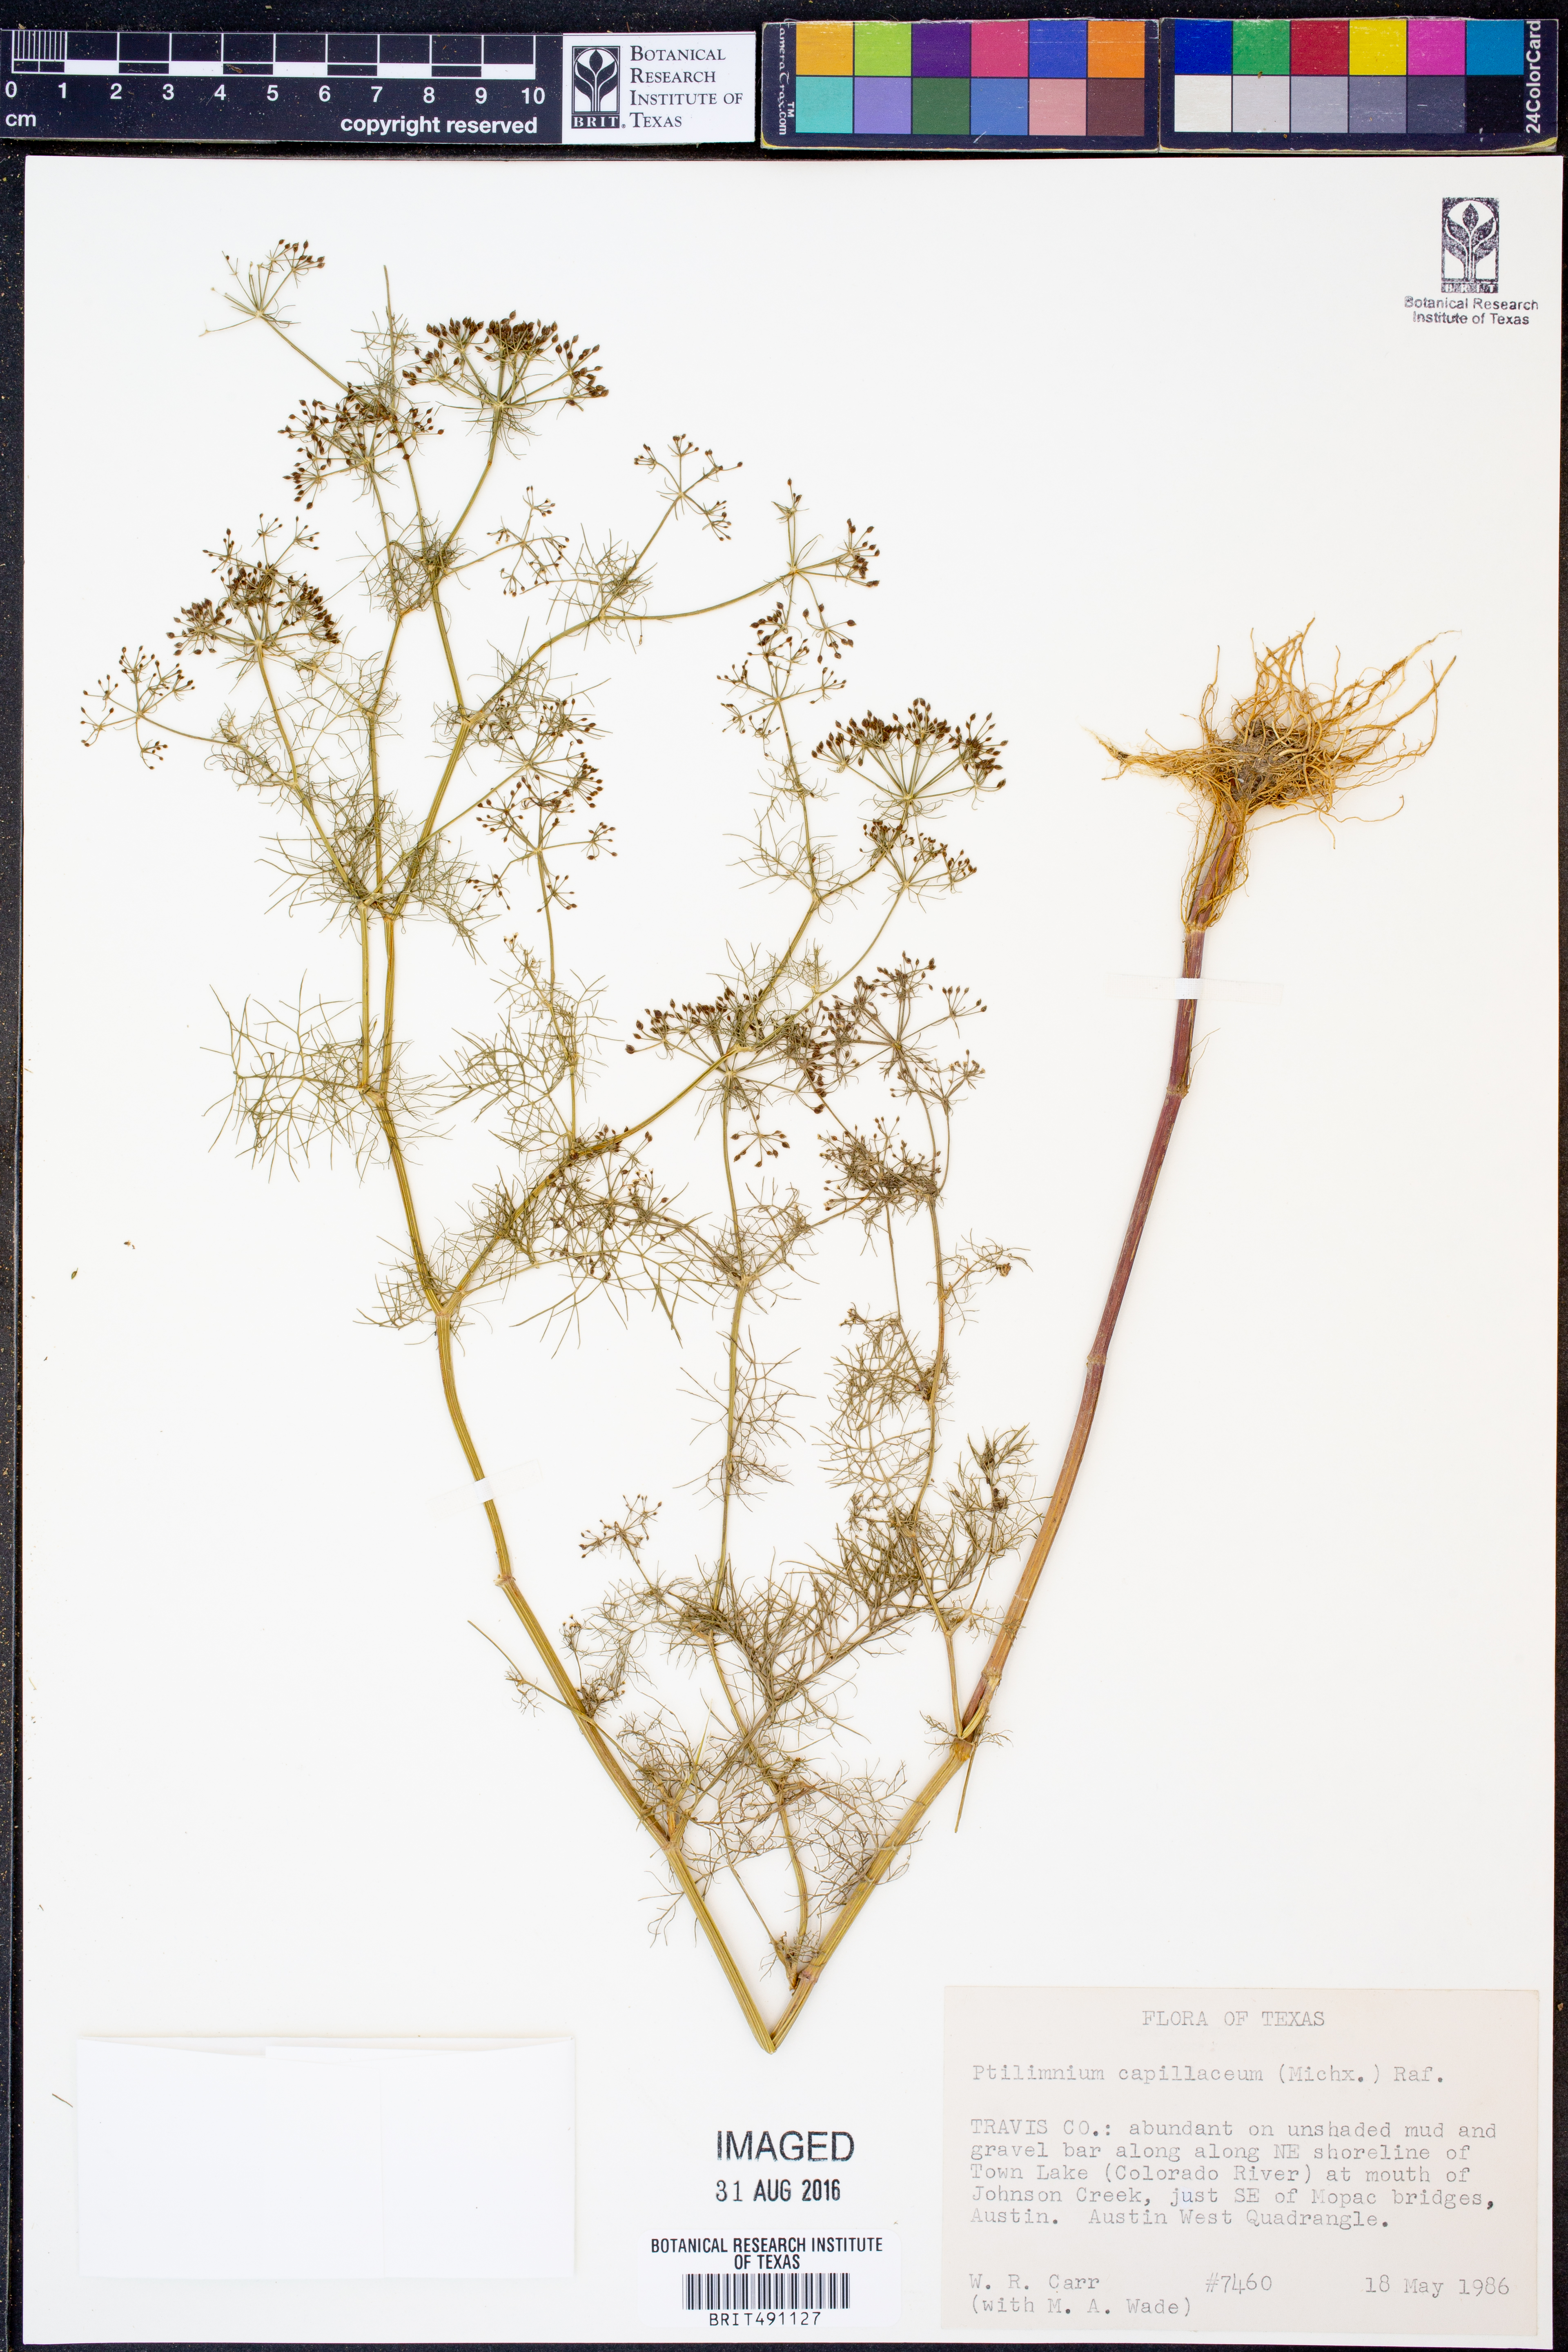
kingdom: Plantae
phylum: Tracheophyta
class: Magnoliopsida
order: Apiales
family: Apiaceae
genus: Ptilimnium
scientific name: Ptilimnium capillaceum
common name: Herbwilliam
